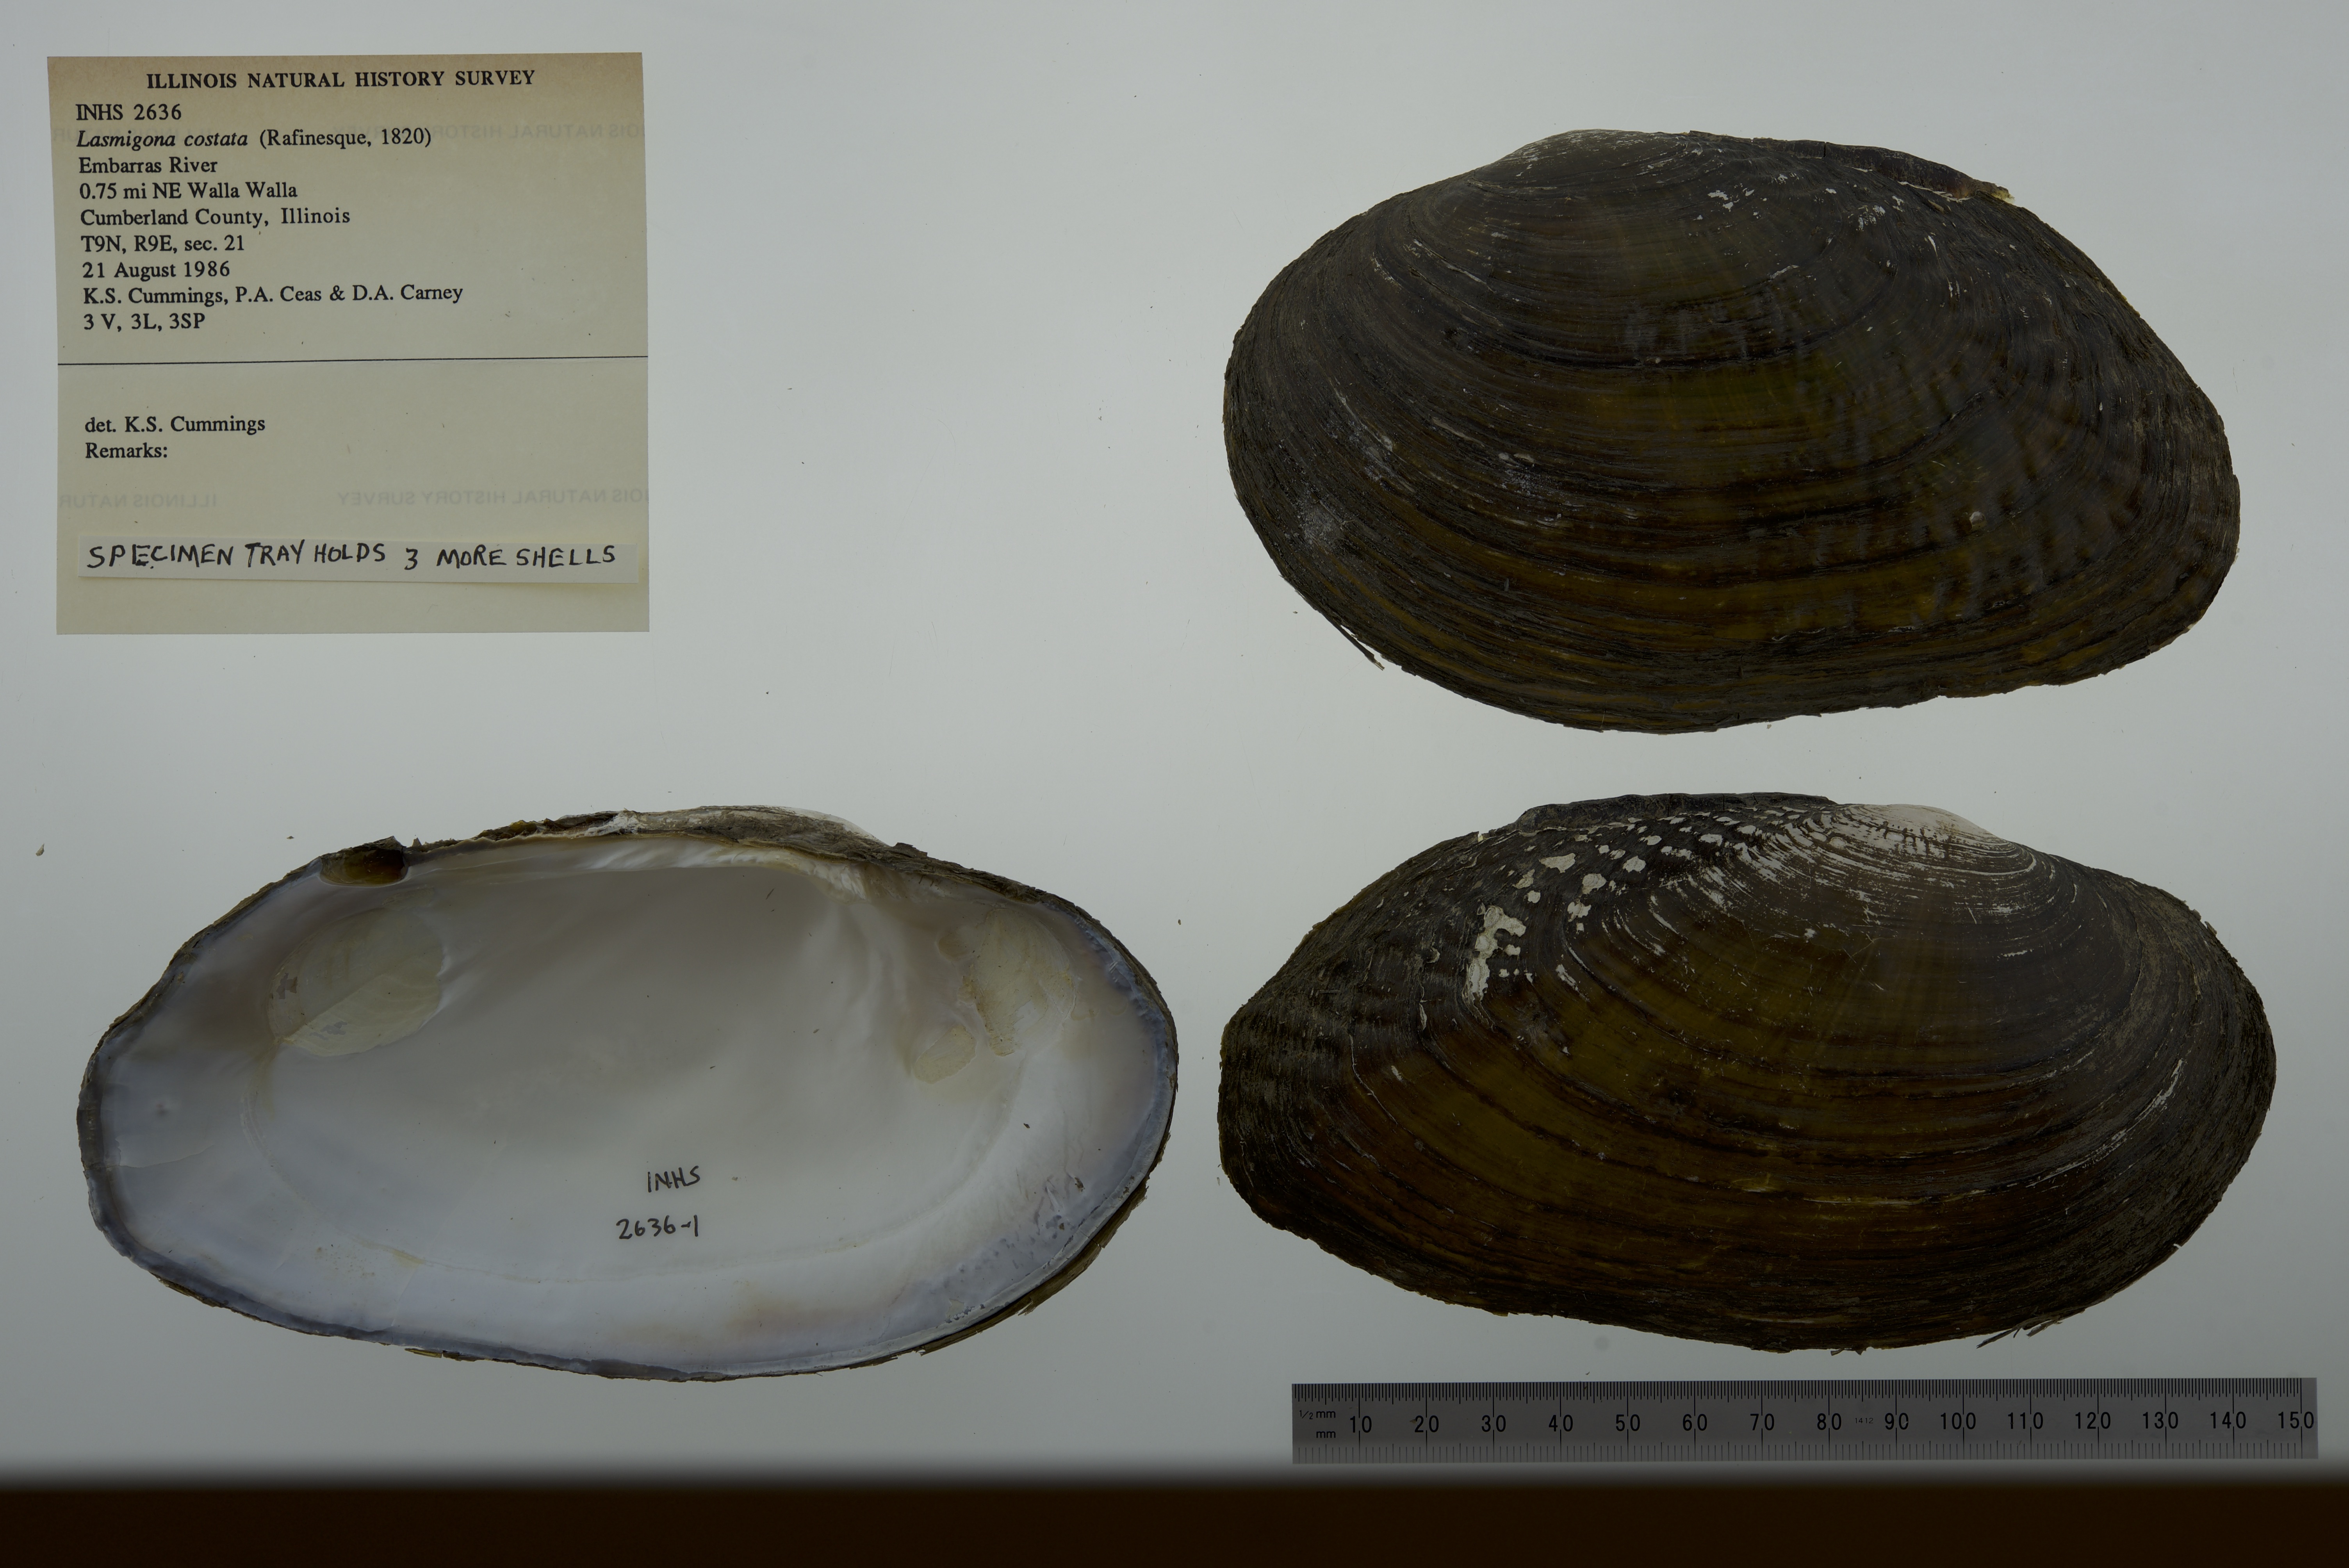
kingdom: Animalia
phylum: Mollusca
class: Bivalvia
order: Unionida
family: Unionidae
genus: Lasmigona
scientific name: Lasmigona costata
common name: Flutedshell
